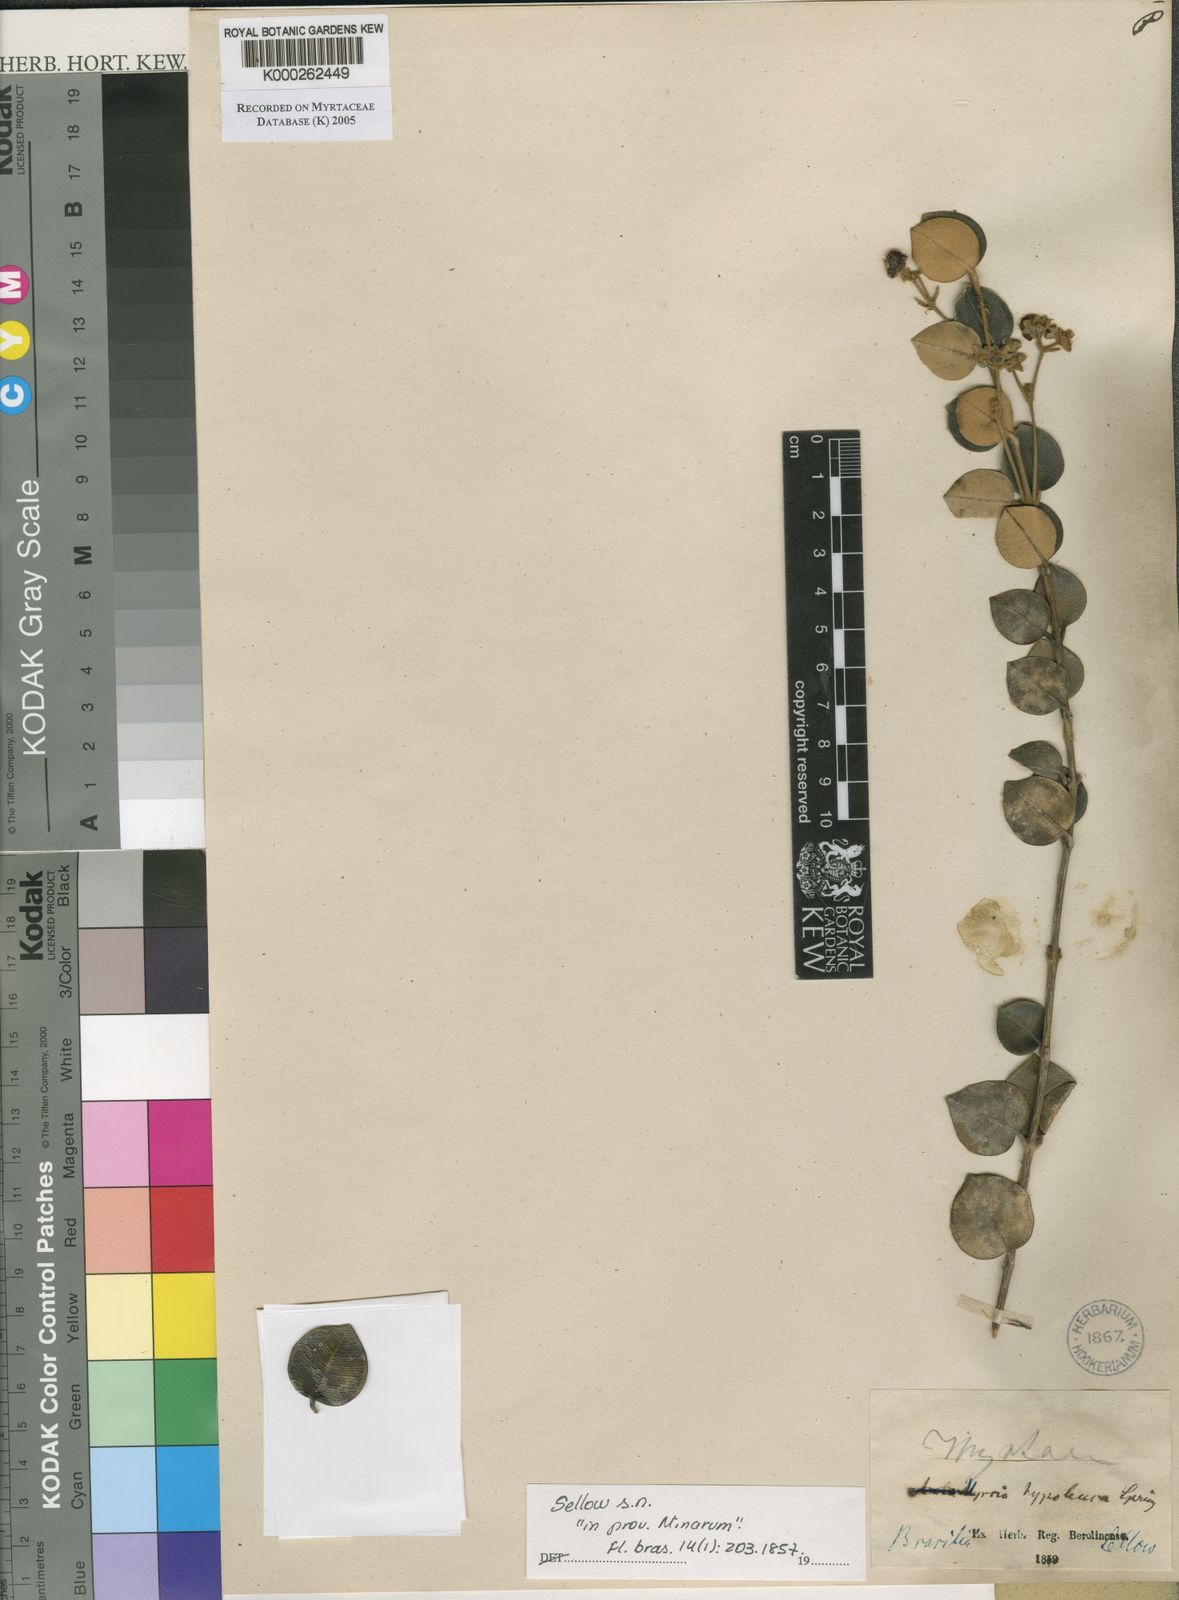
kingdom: Plantae
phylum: Tracheophyta
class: Magnoliopsida
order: Myrtales
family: Myrtaceae
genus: Myrcia
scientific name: Myrcia hypoleuca
